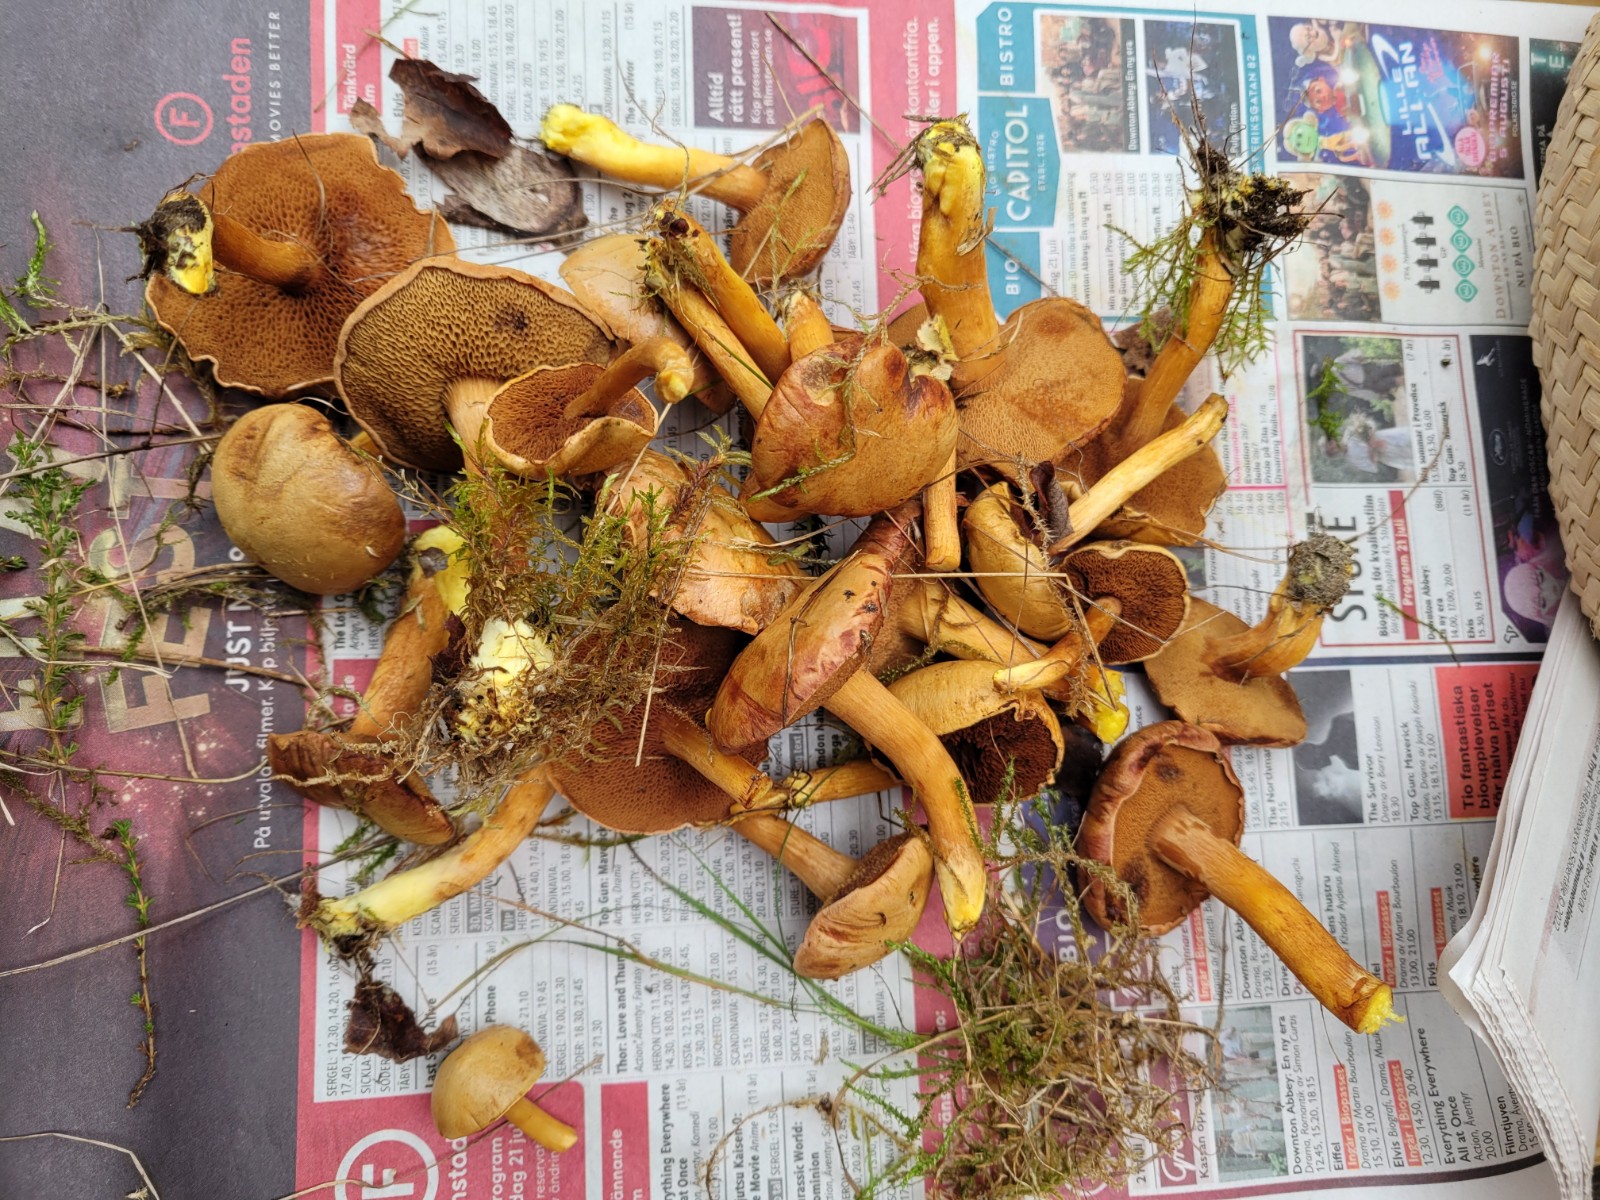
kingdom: Fungi
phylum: Basidiomycota
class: Agaricomycetes
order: Boletales
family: Boletaceae
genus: Chalciporus
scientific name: Chalciporus piperatus
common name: peberrørhat
